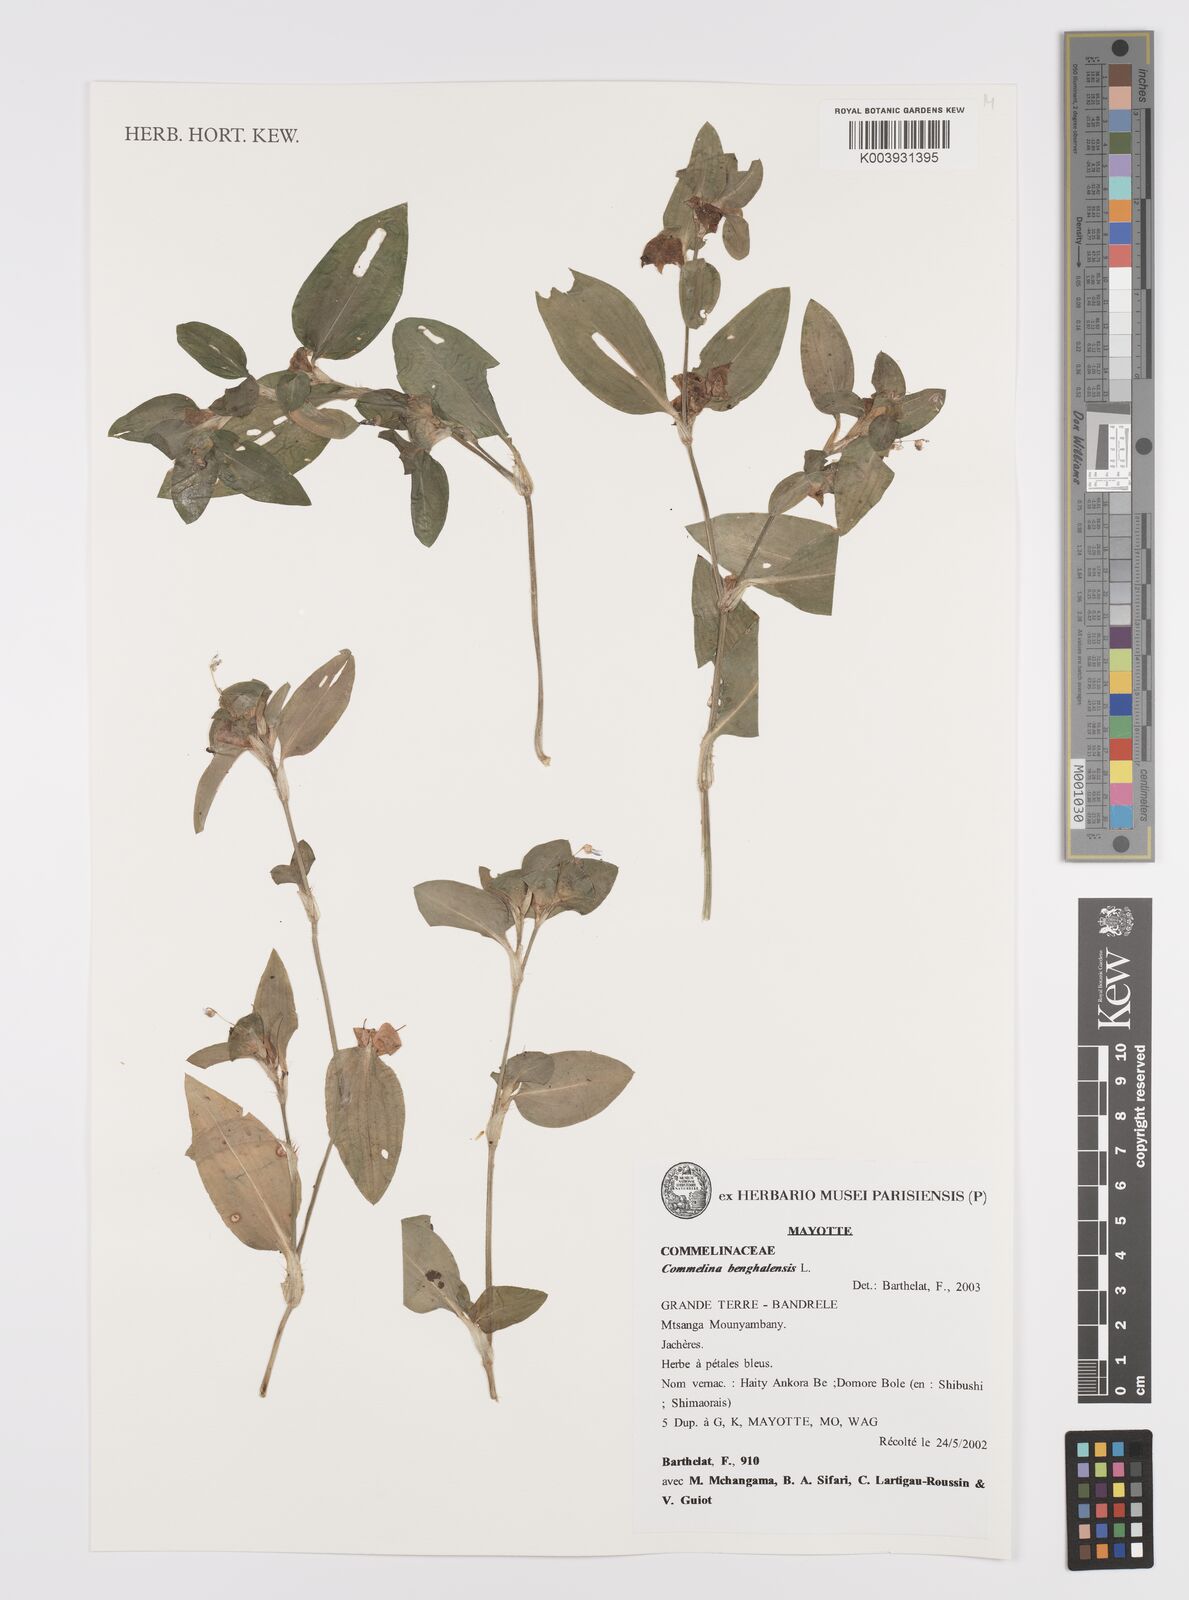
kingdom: Plantae
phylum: Tracheophyta
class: Liliopsida
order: Commelinales
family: Commelinaceae
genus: Commelina
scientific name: Commelina benghalensis
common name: Jio
